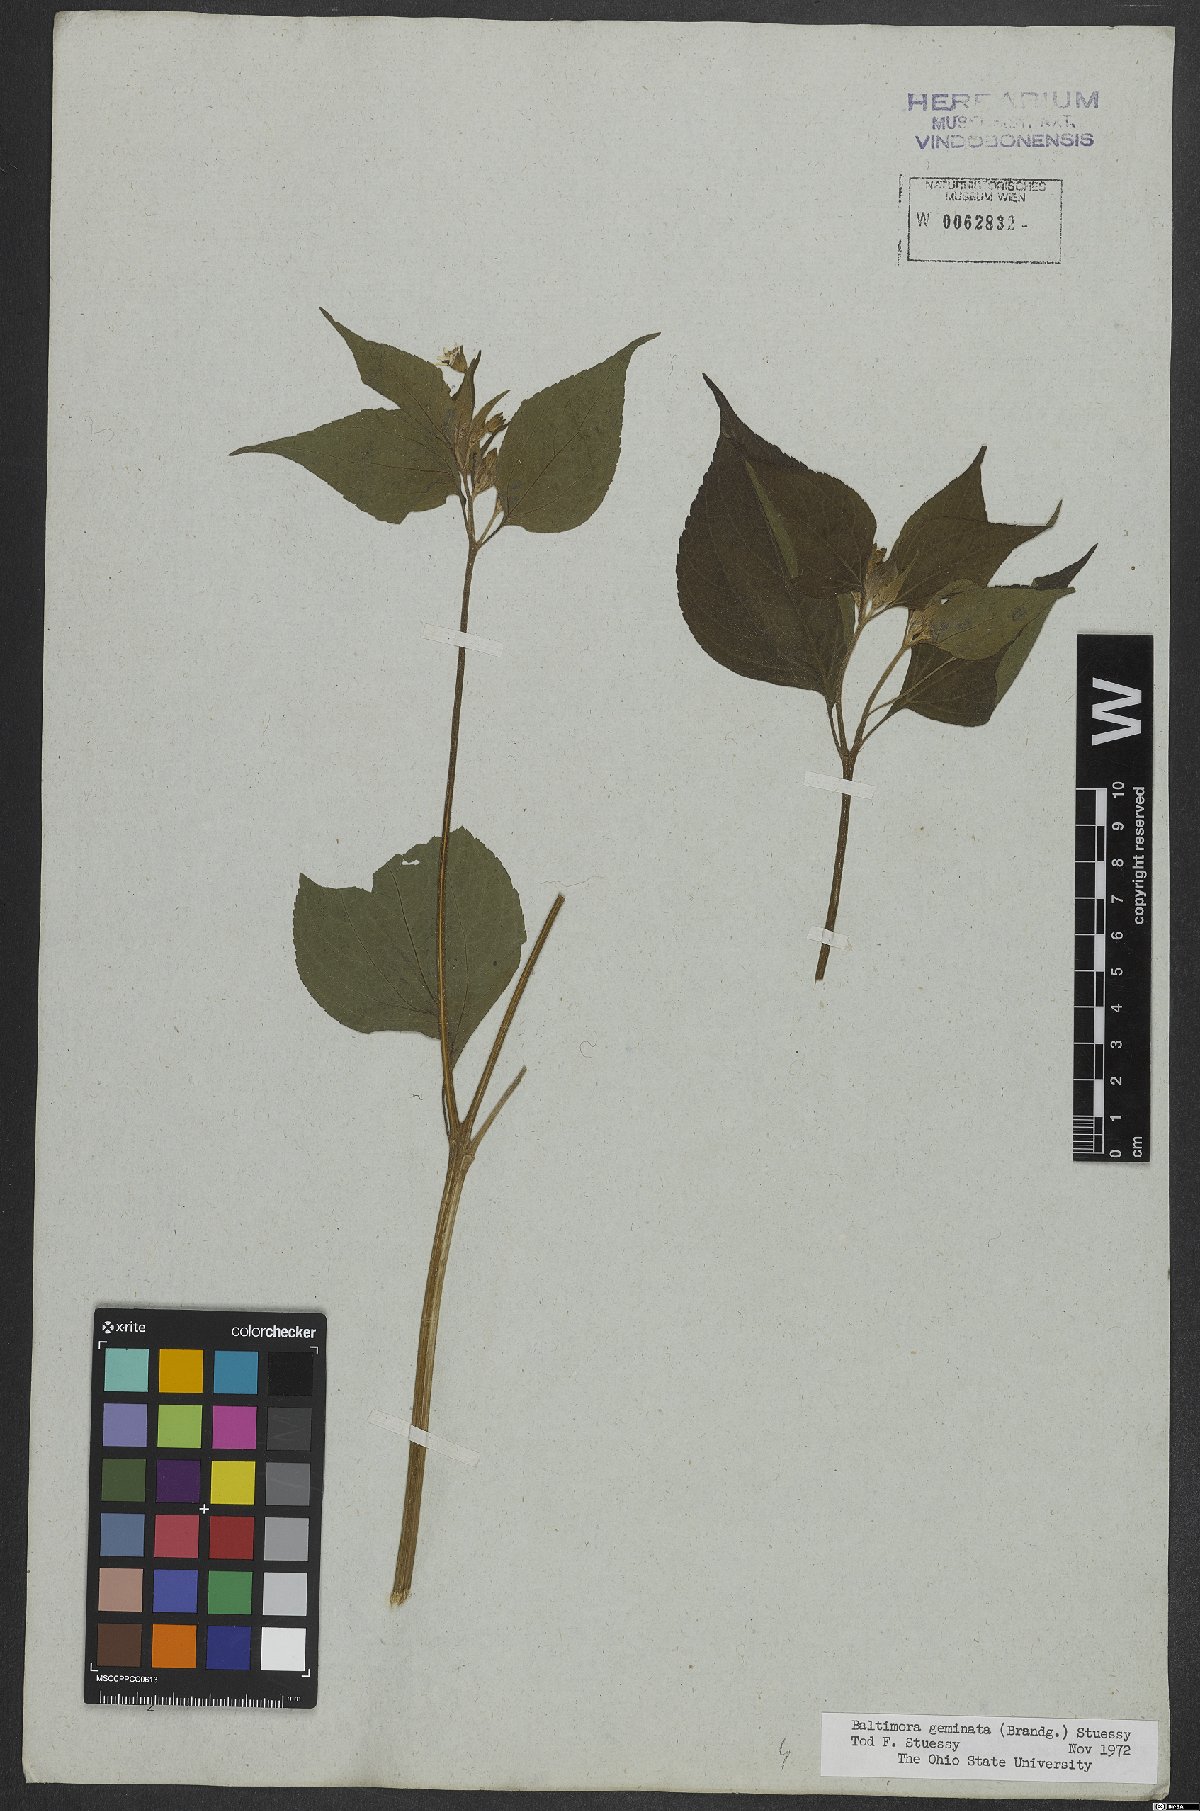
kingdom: Plantae
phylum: Tracheophyta
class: Magnoliopsida
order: Asterales
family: Asteraceae
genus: Baltimora
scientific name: Baltimora geminata
